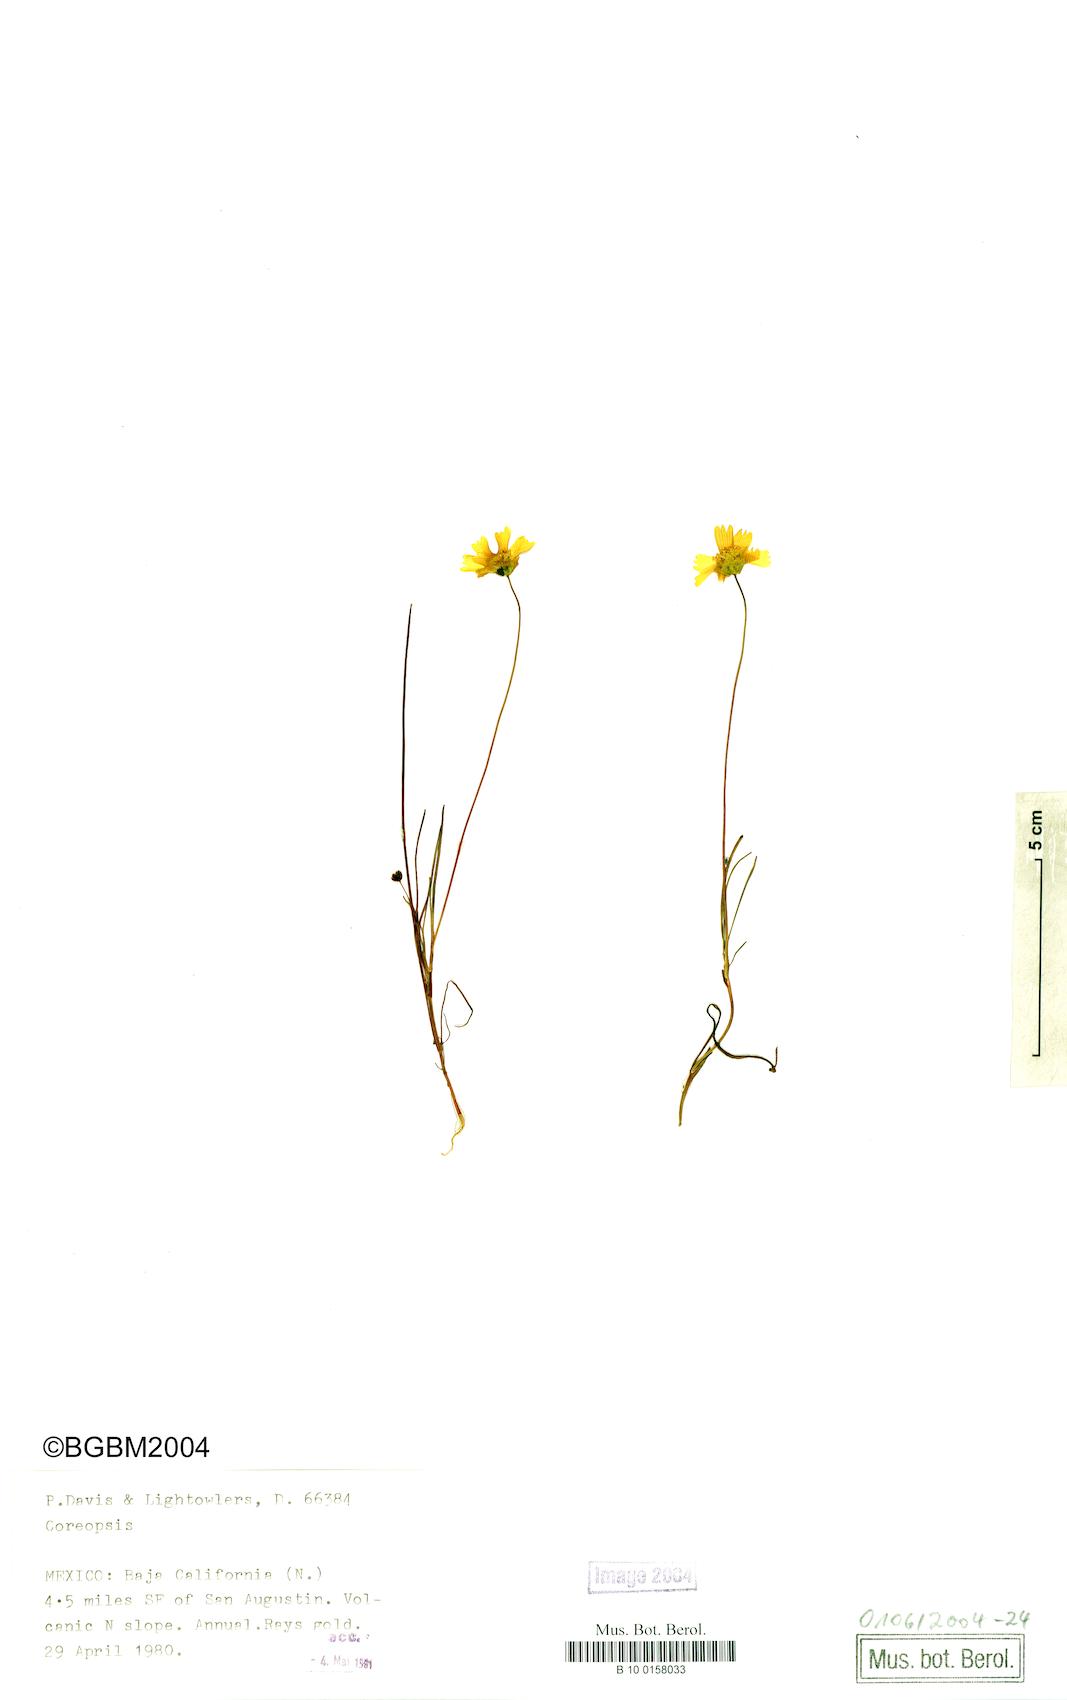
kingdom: Plantae
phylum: Tracheophyta
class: Magnoliopsida
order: Asterales
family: Asteraceae
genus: Coreopsis
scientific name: Coreopsis
